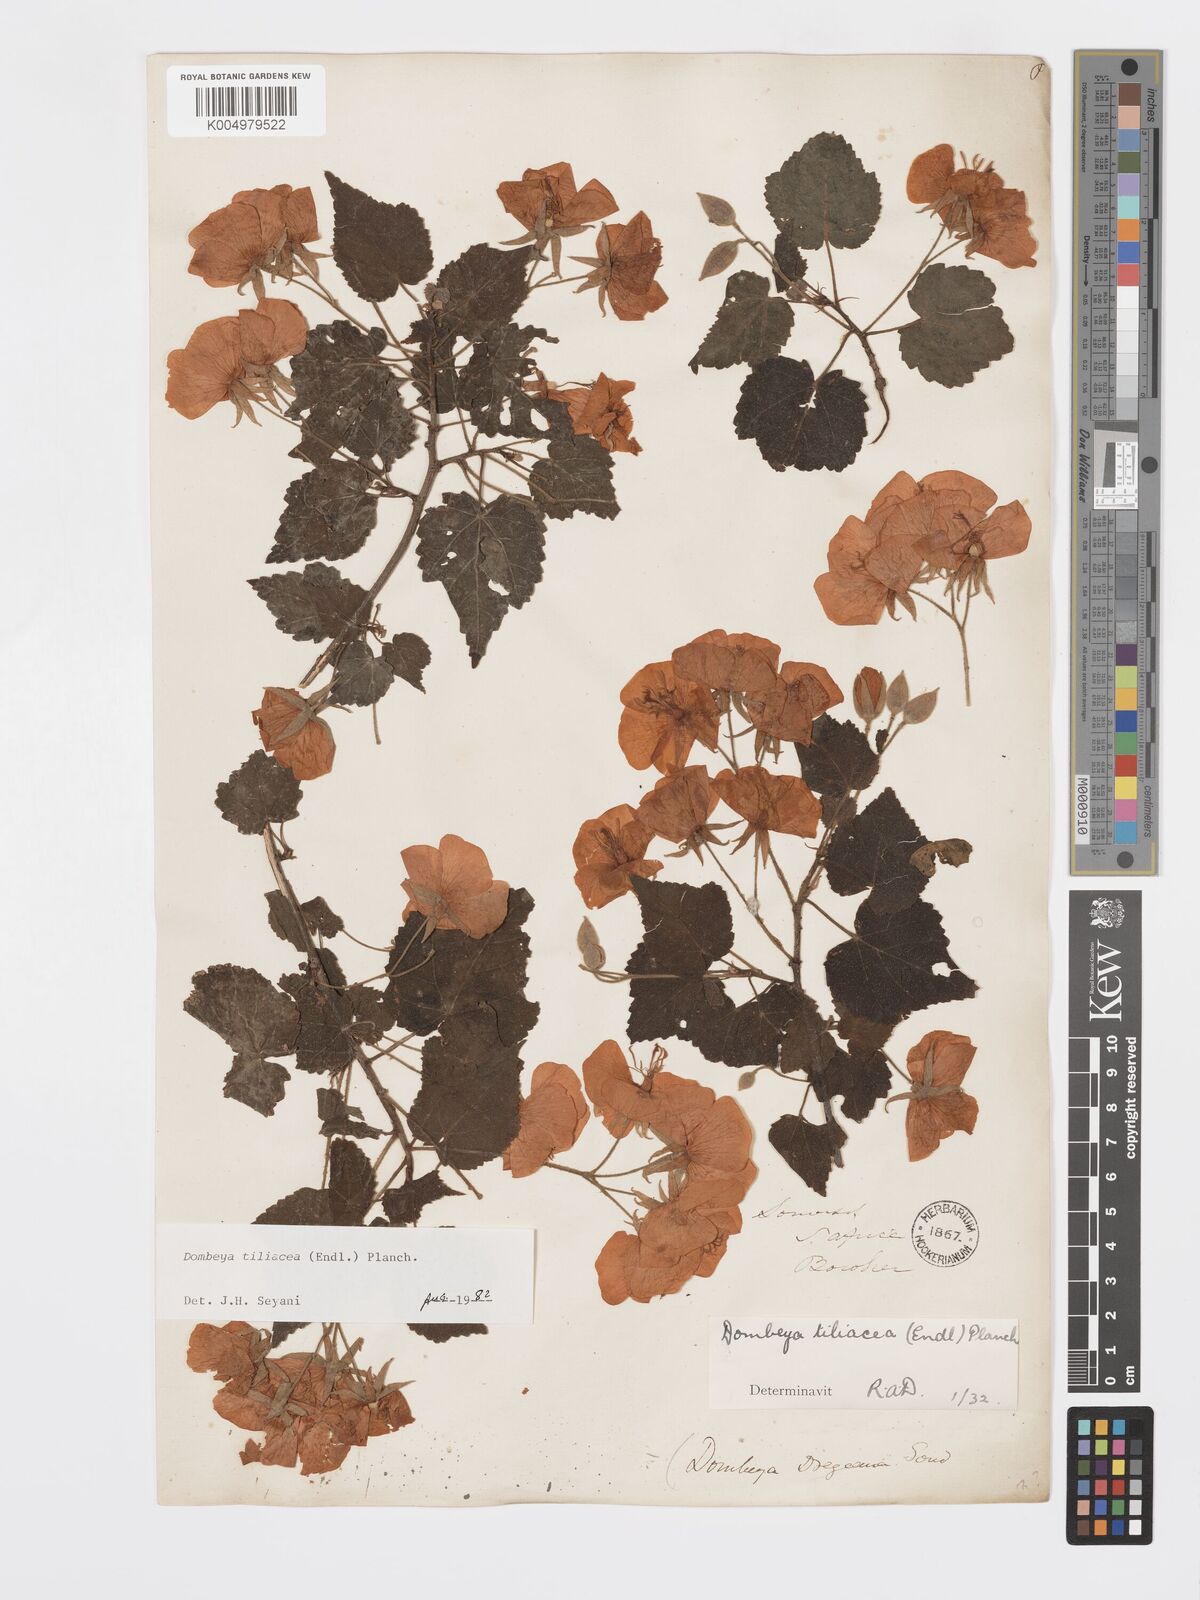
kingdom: Plantae
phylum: Tracheophyta
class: Magnoliopsida
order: Malvales
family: Malvaceae
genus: Dombeya
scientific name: Dombeya tiliacea
